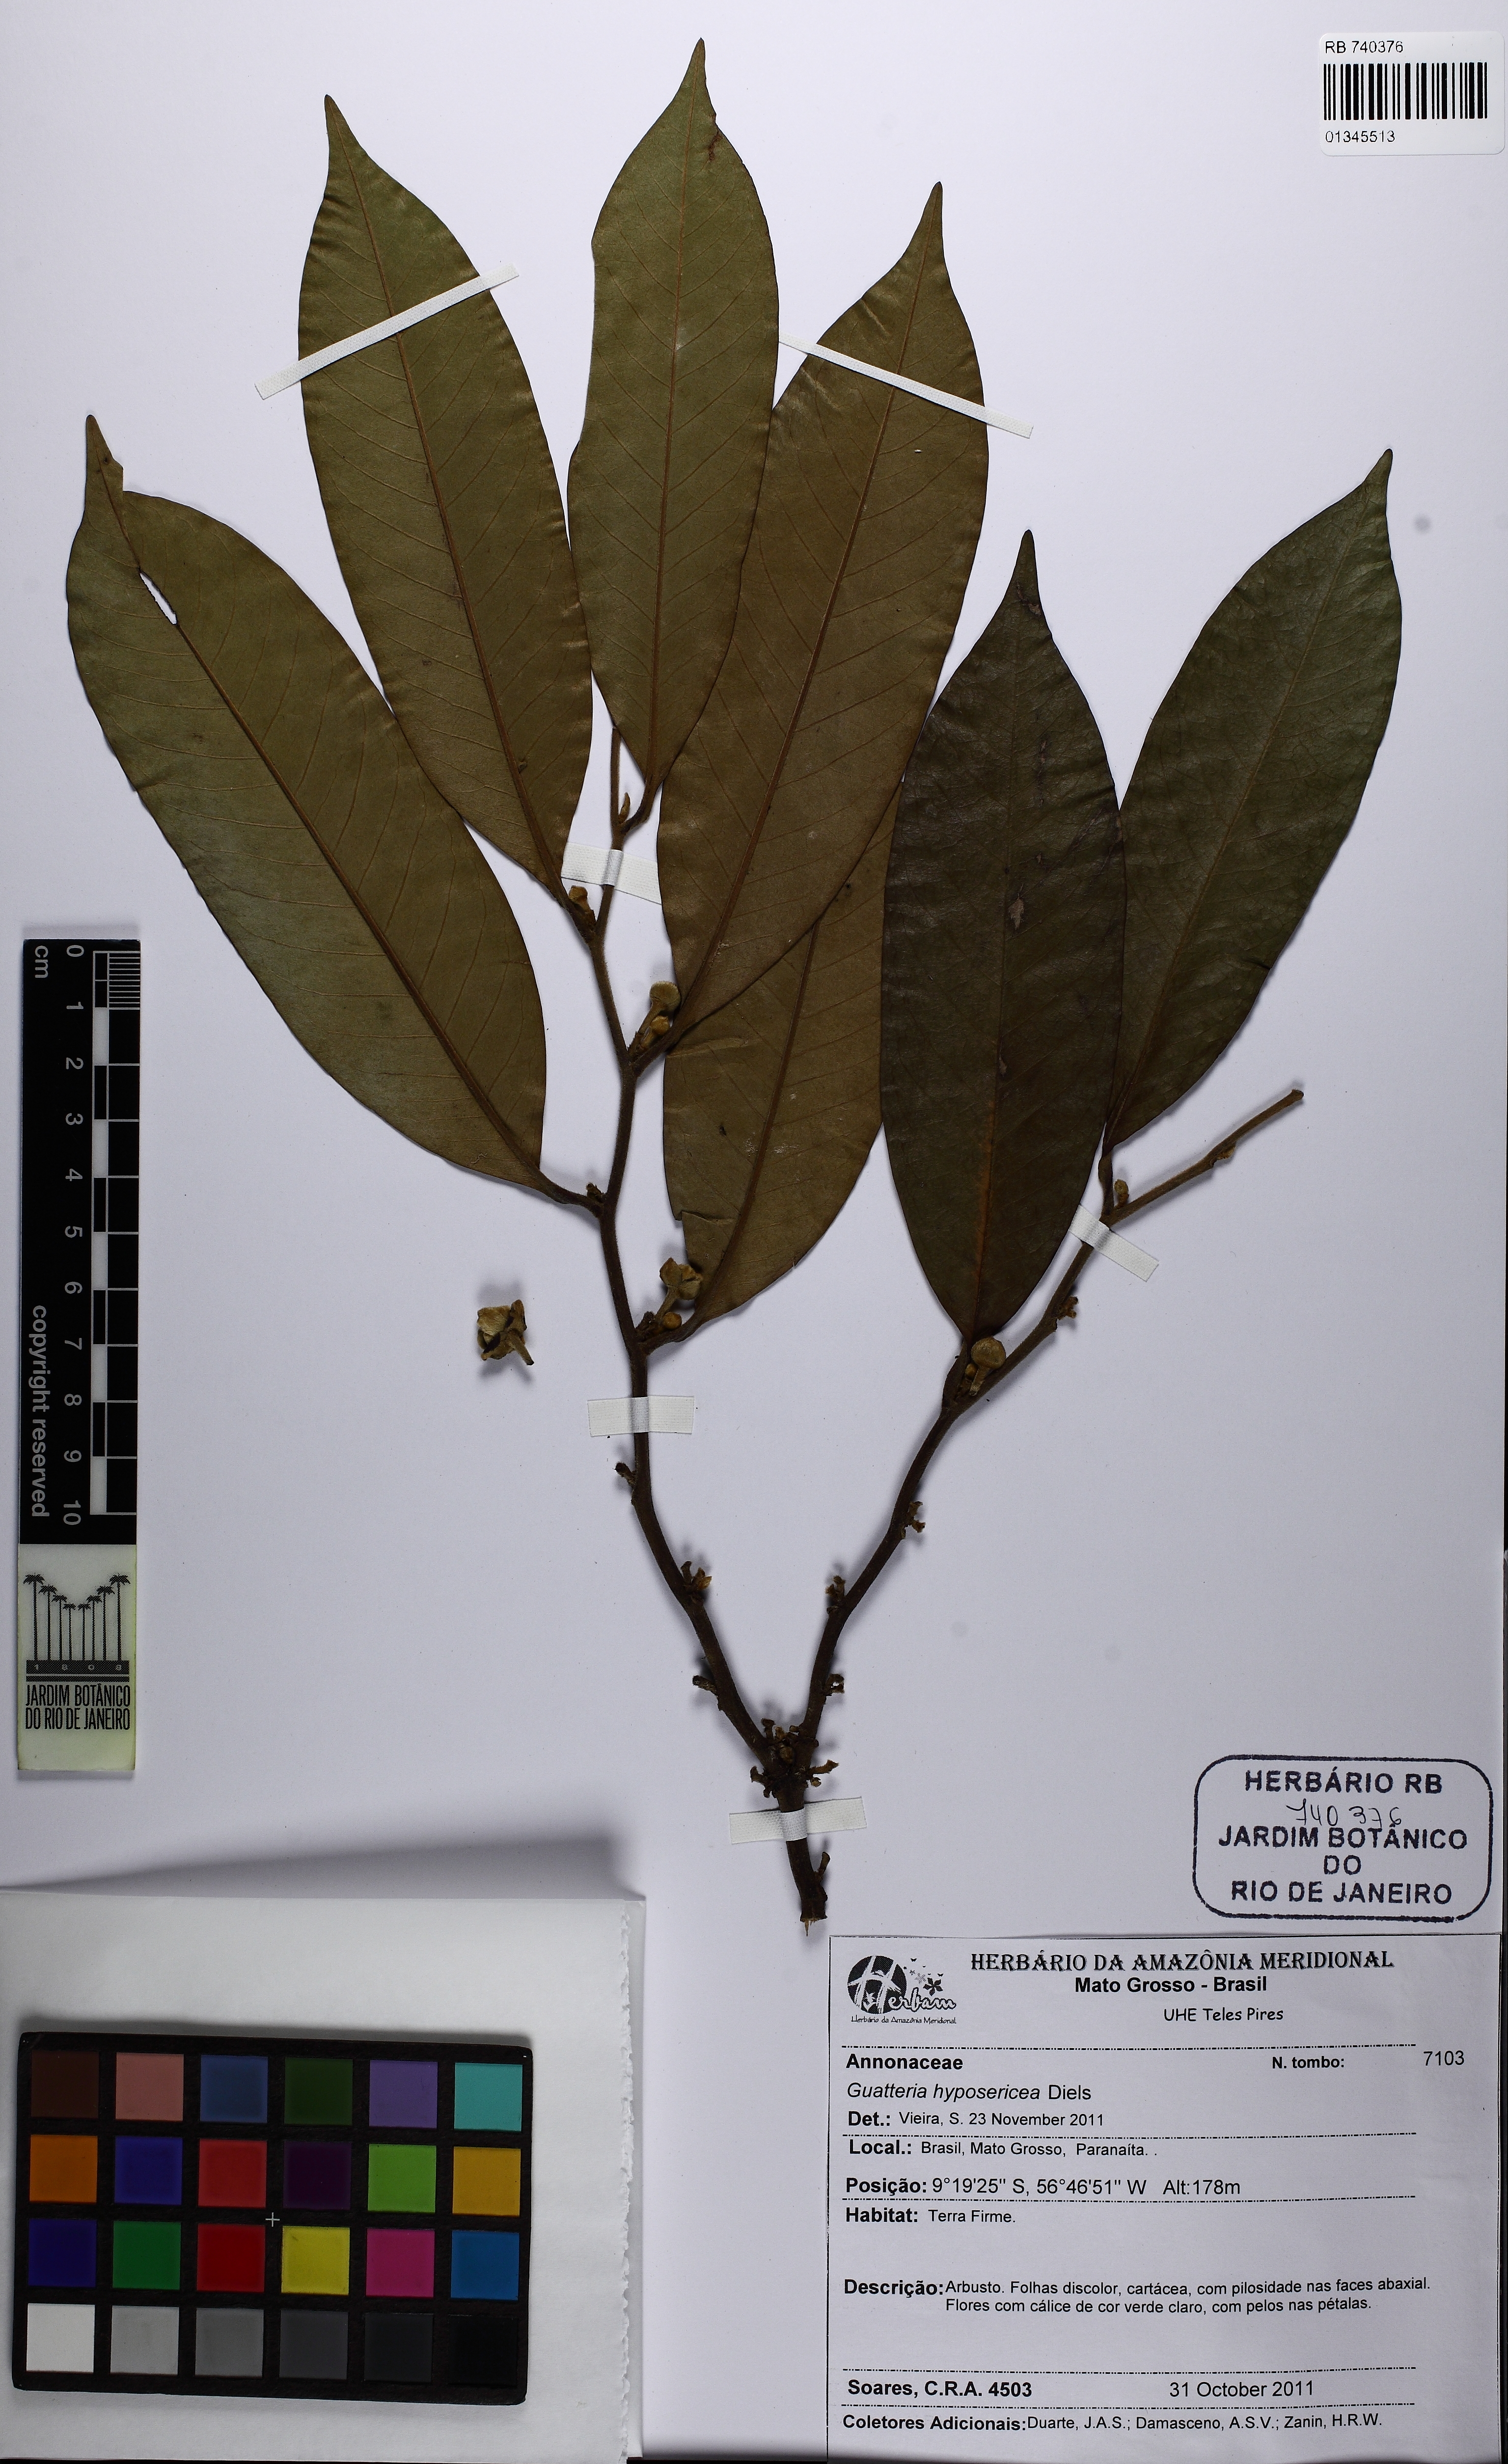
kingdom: Plantae
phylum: Tracheophyta
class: Magnoliopsida
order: Magnoliales
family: Annonaceae
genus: Guatteria
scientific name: Guatteria scytophylla
